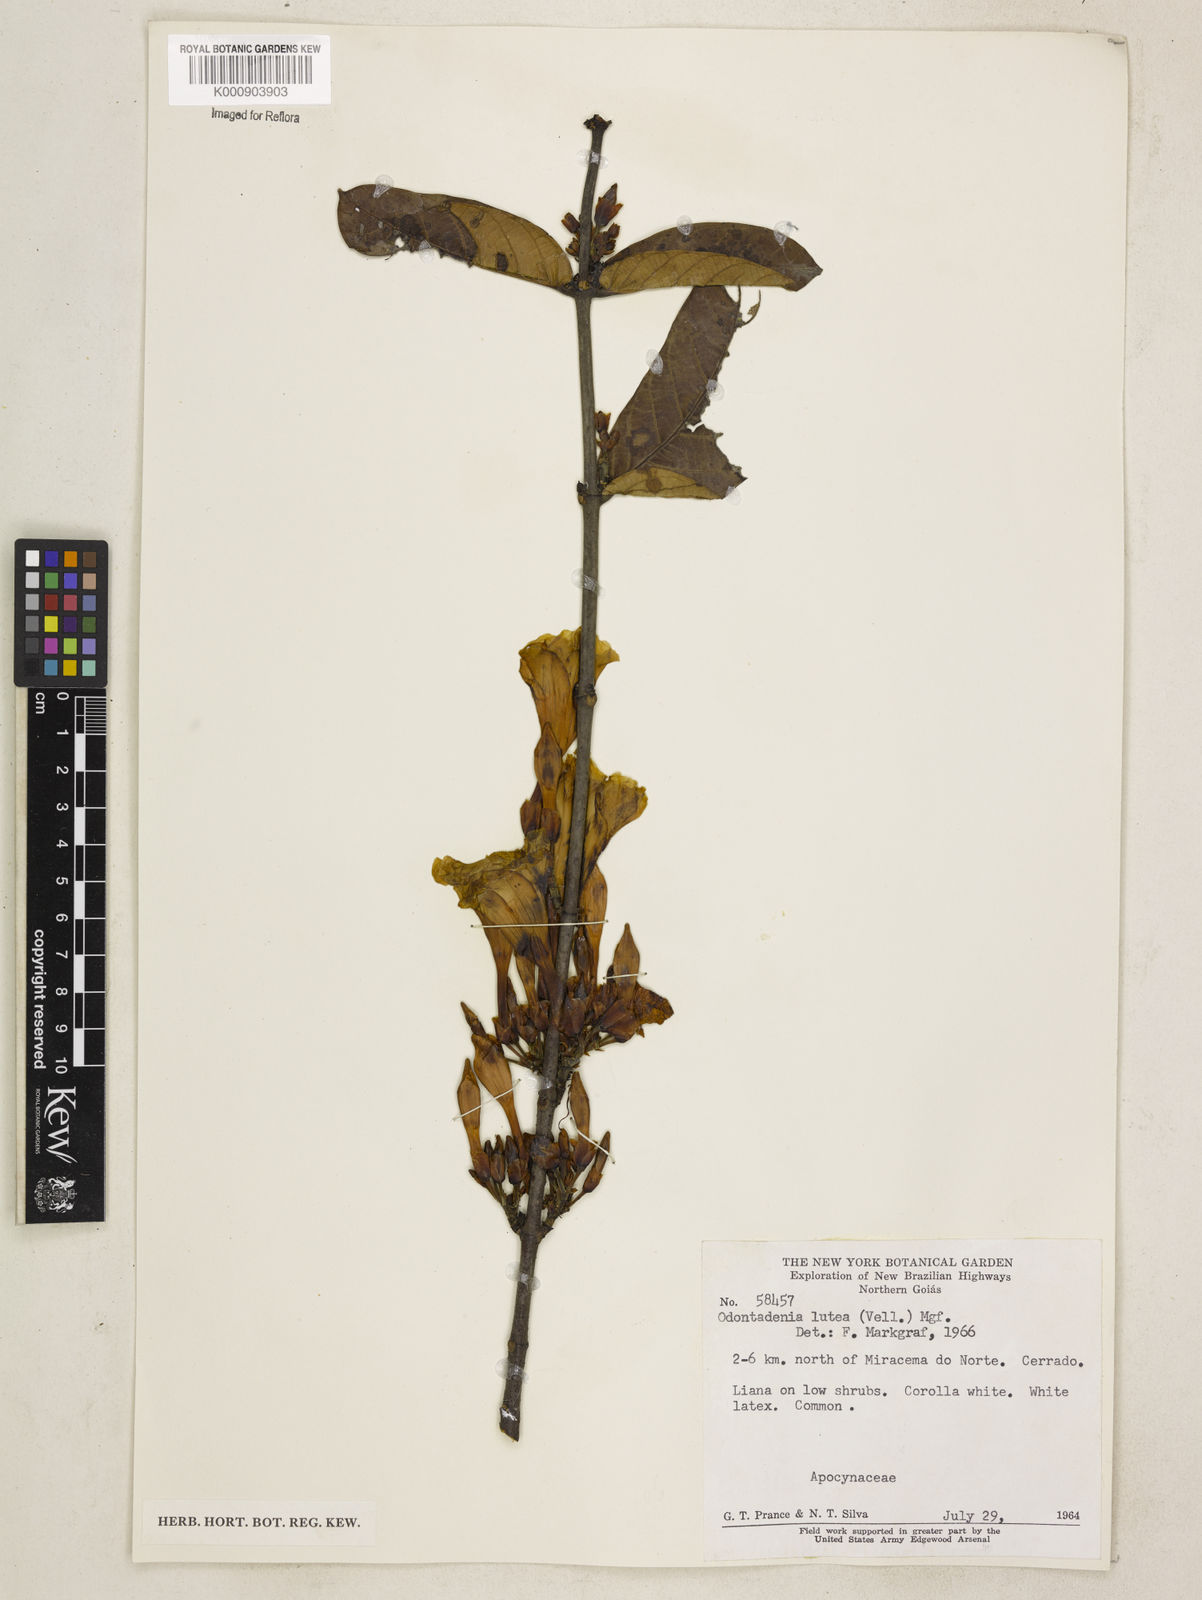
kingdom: Plantae
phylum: Tracheophyta
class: Magnoliopsida
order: Gentianales
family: Apocynaceae
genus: Odontadenia
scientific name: Odontadenia lutea
